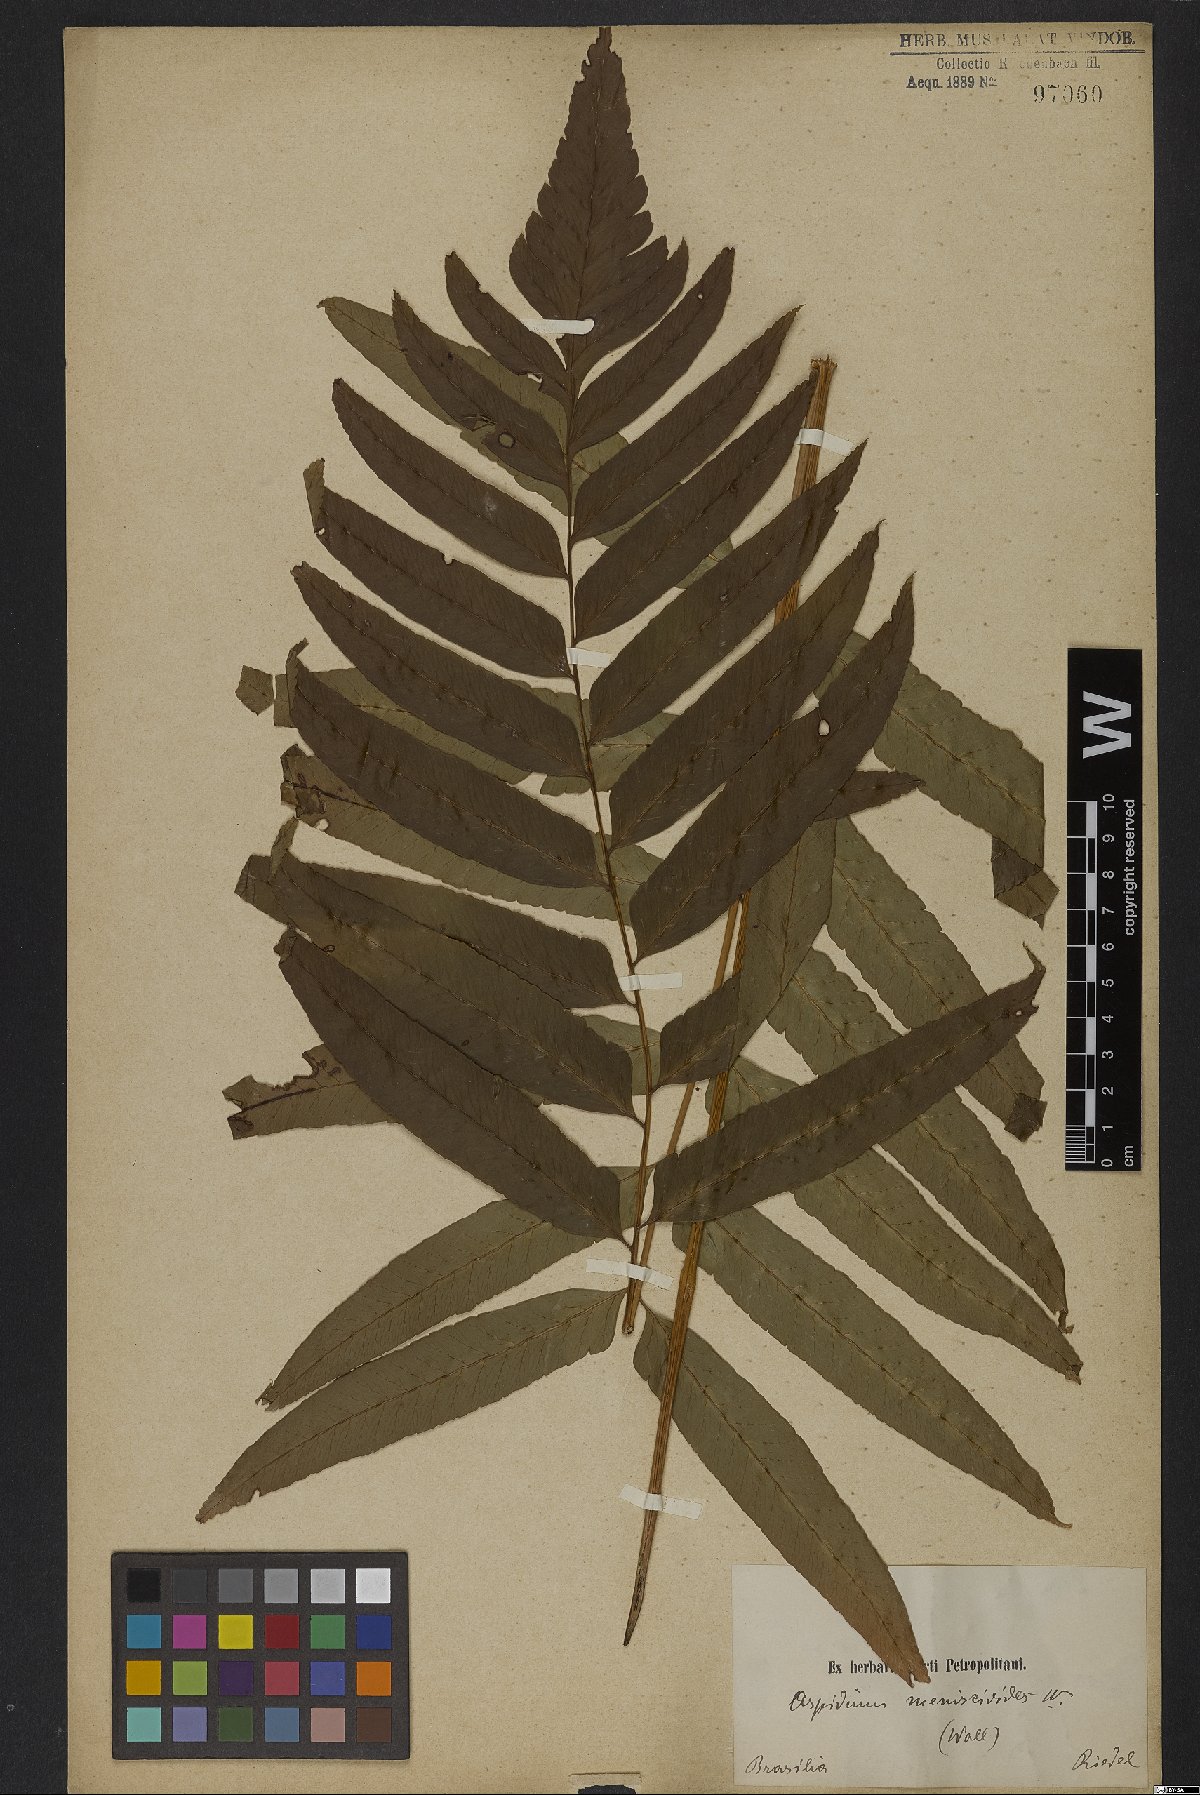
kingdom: Plantae
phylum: Tracheophyta
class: Polypodiopsida
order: Polypodiales
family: Dryopteridaceae
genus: Cyclodium
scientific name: Cyclodium meniscioides
